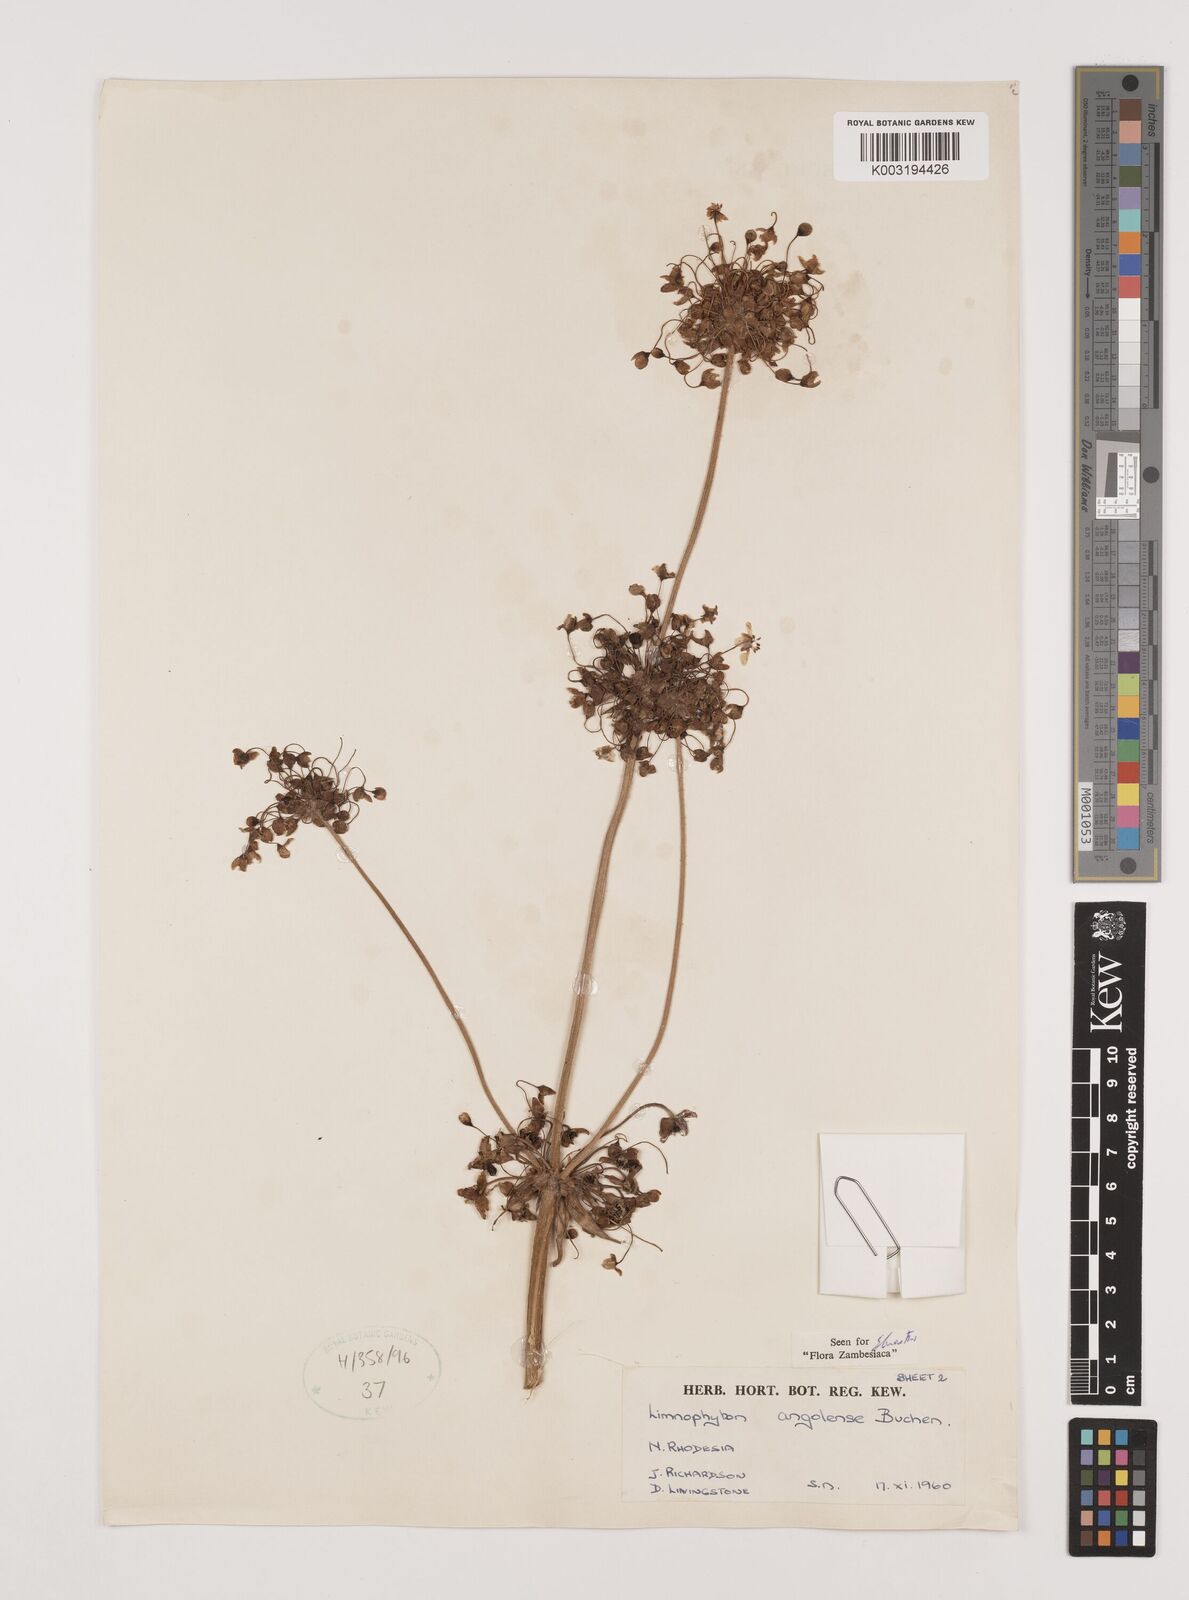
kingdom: Plantae
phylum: Tracheophyta
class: Liliopsida
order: Alismatales
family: Alismataceae
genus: Limnophyton
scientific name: Limnophyton
